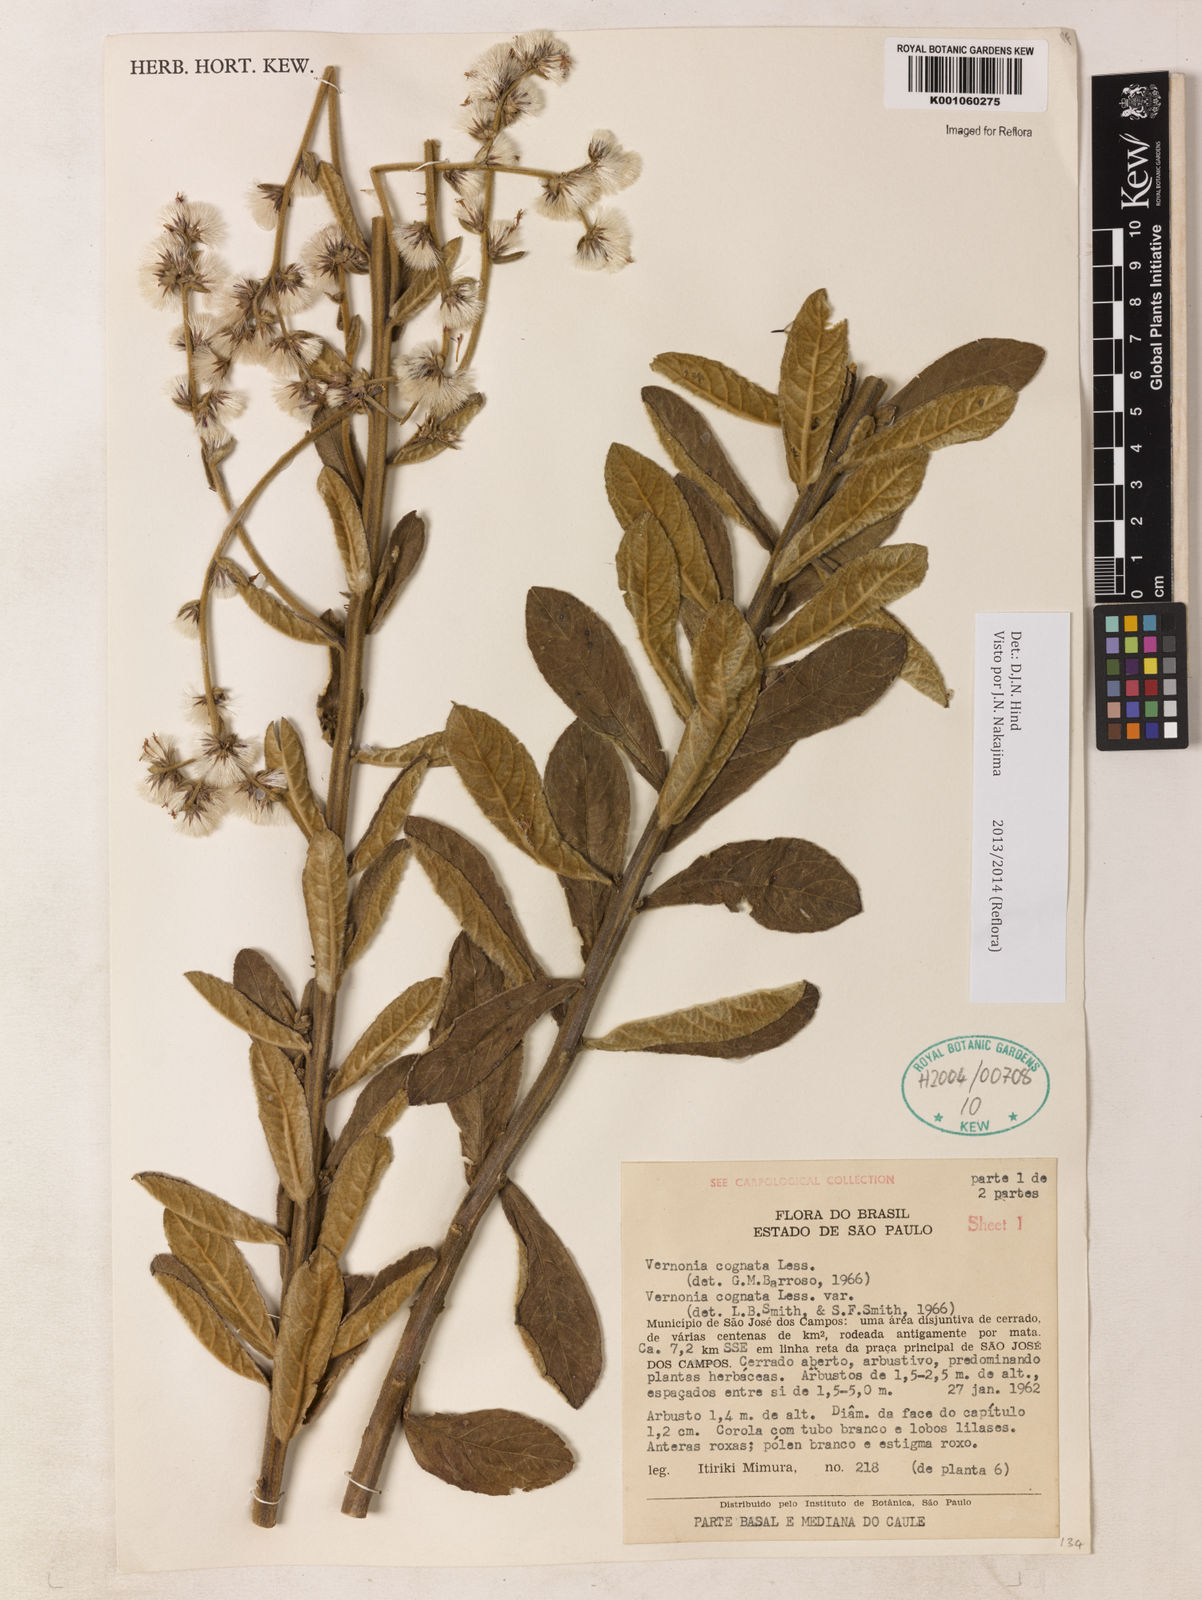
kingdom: Plantae
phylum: Tracheophyta
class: Magnoliopsida
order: Asterales
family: Asteraceae
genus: Chrysolaena
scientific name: Chrysolaena cognata
